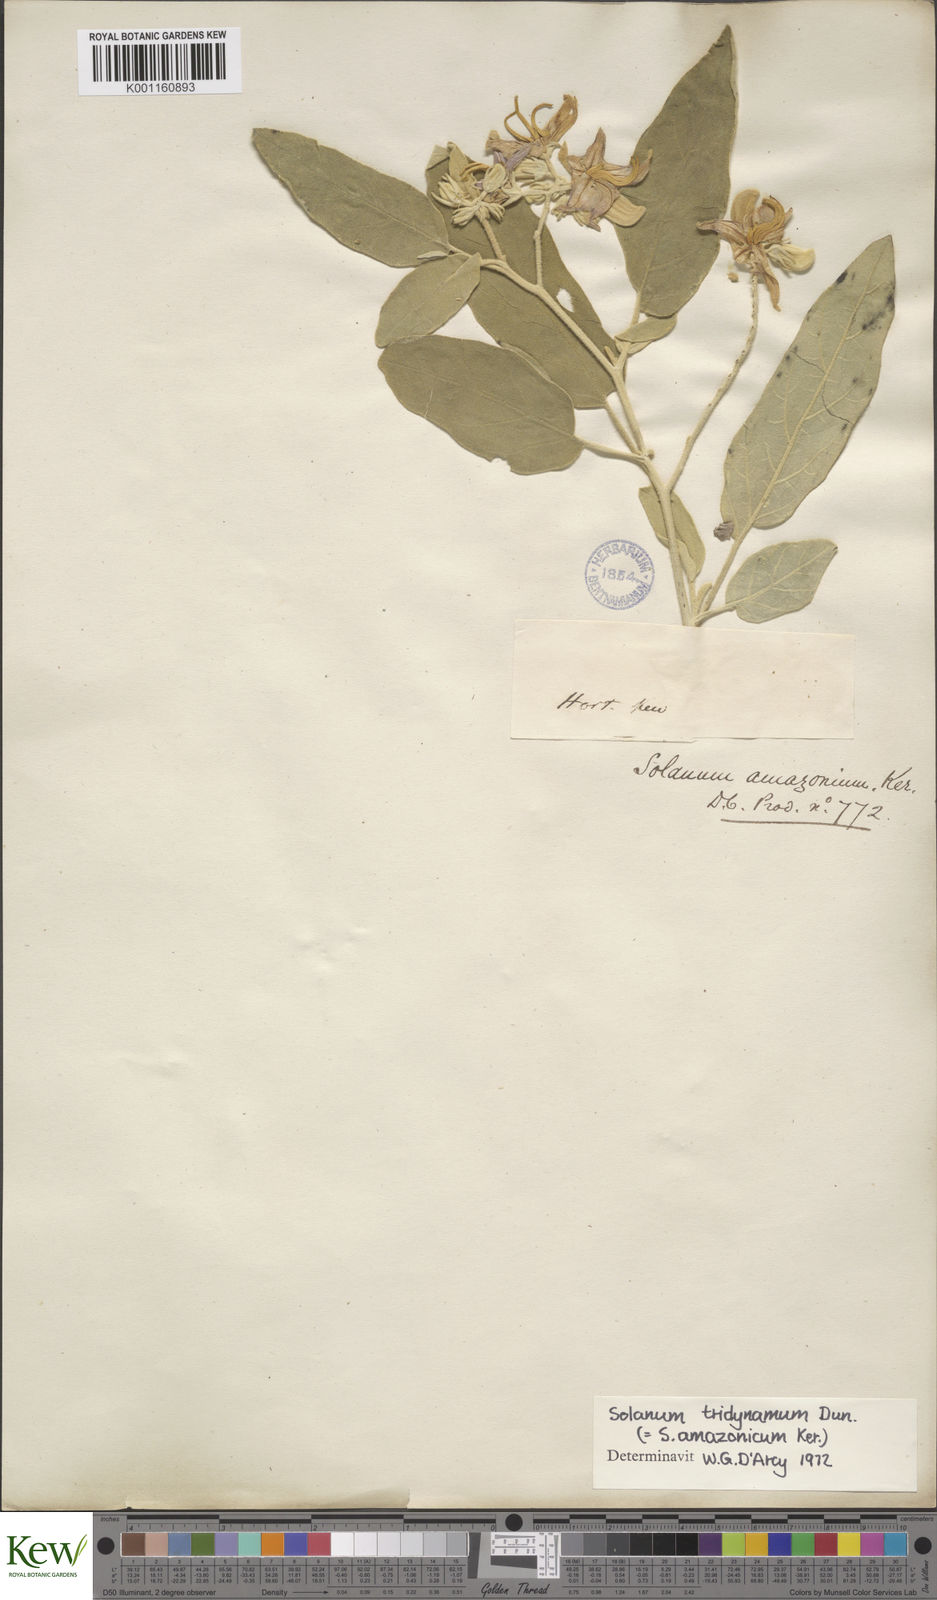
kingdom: Plantae
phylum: Tracheophyta
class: Magnoliopsida
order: Solanales
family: Solanaceae
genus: Solanum
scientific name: Solanum houstonii
